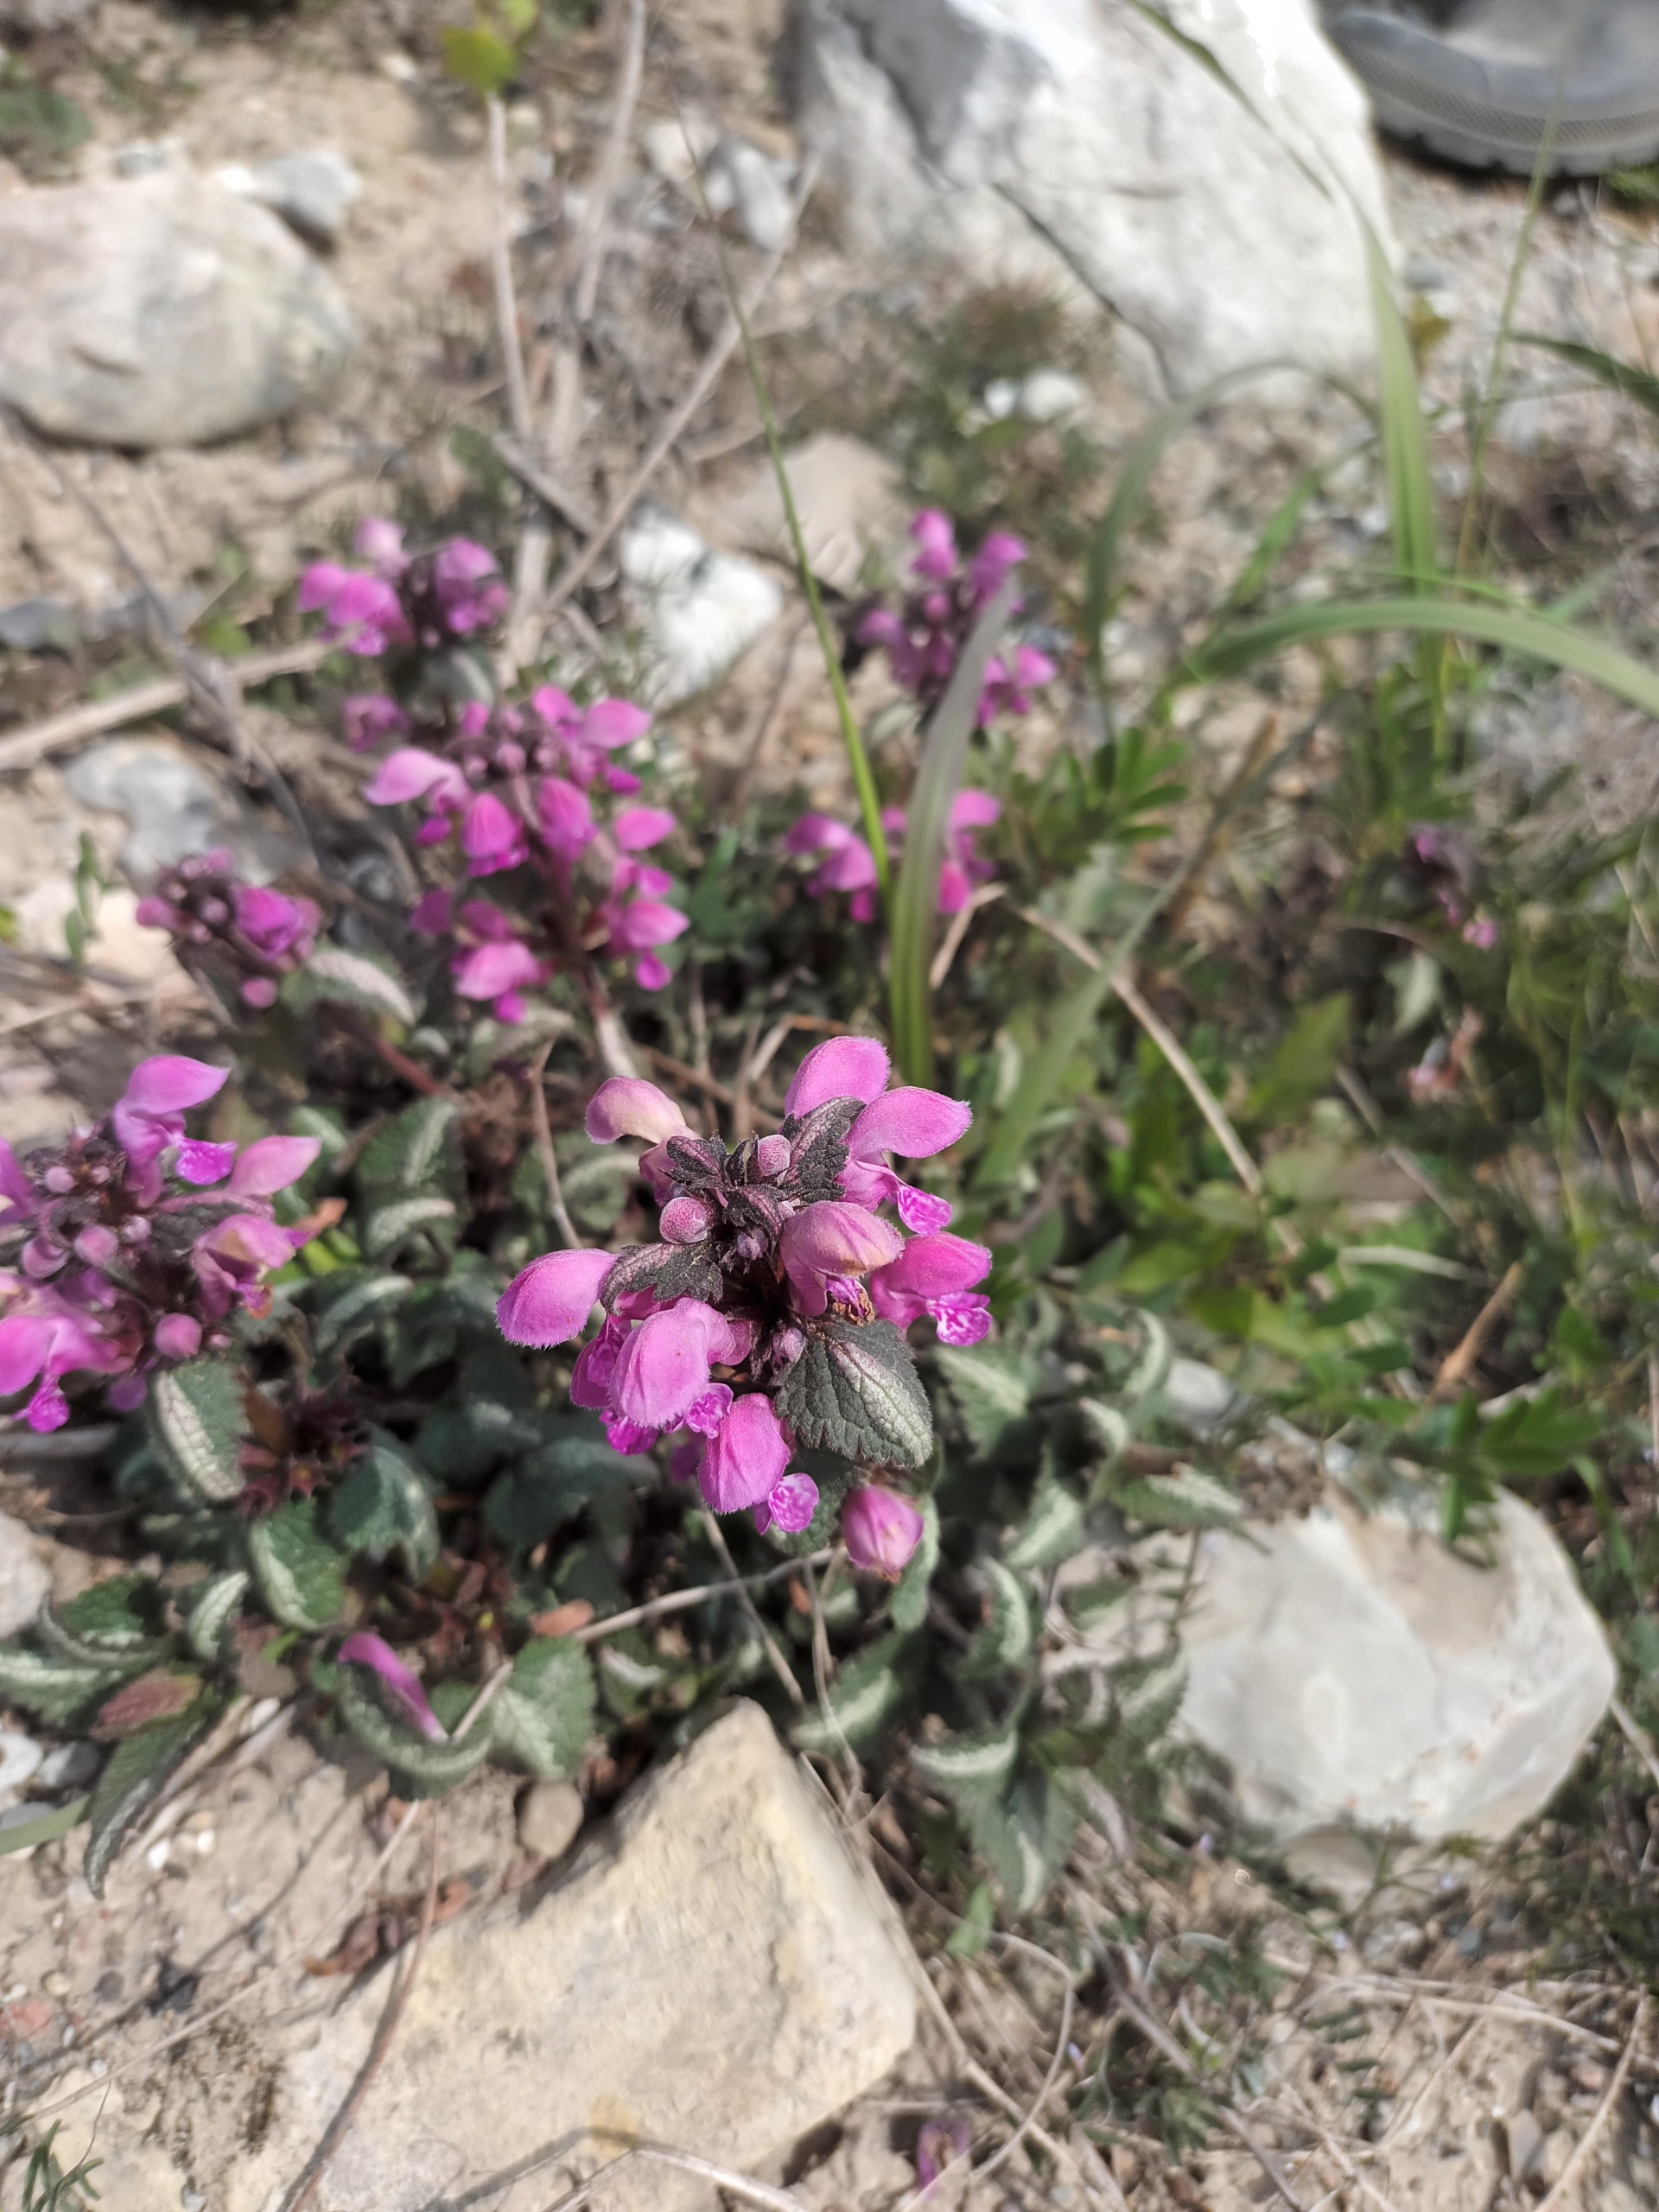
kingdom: Plantae
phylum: Tracheophyta
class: Magnoliopsida
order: Lamiales
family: Lamiaceae
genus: Lamium
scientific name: Lamium maculatum
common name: Plettet tvetand
